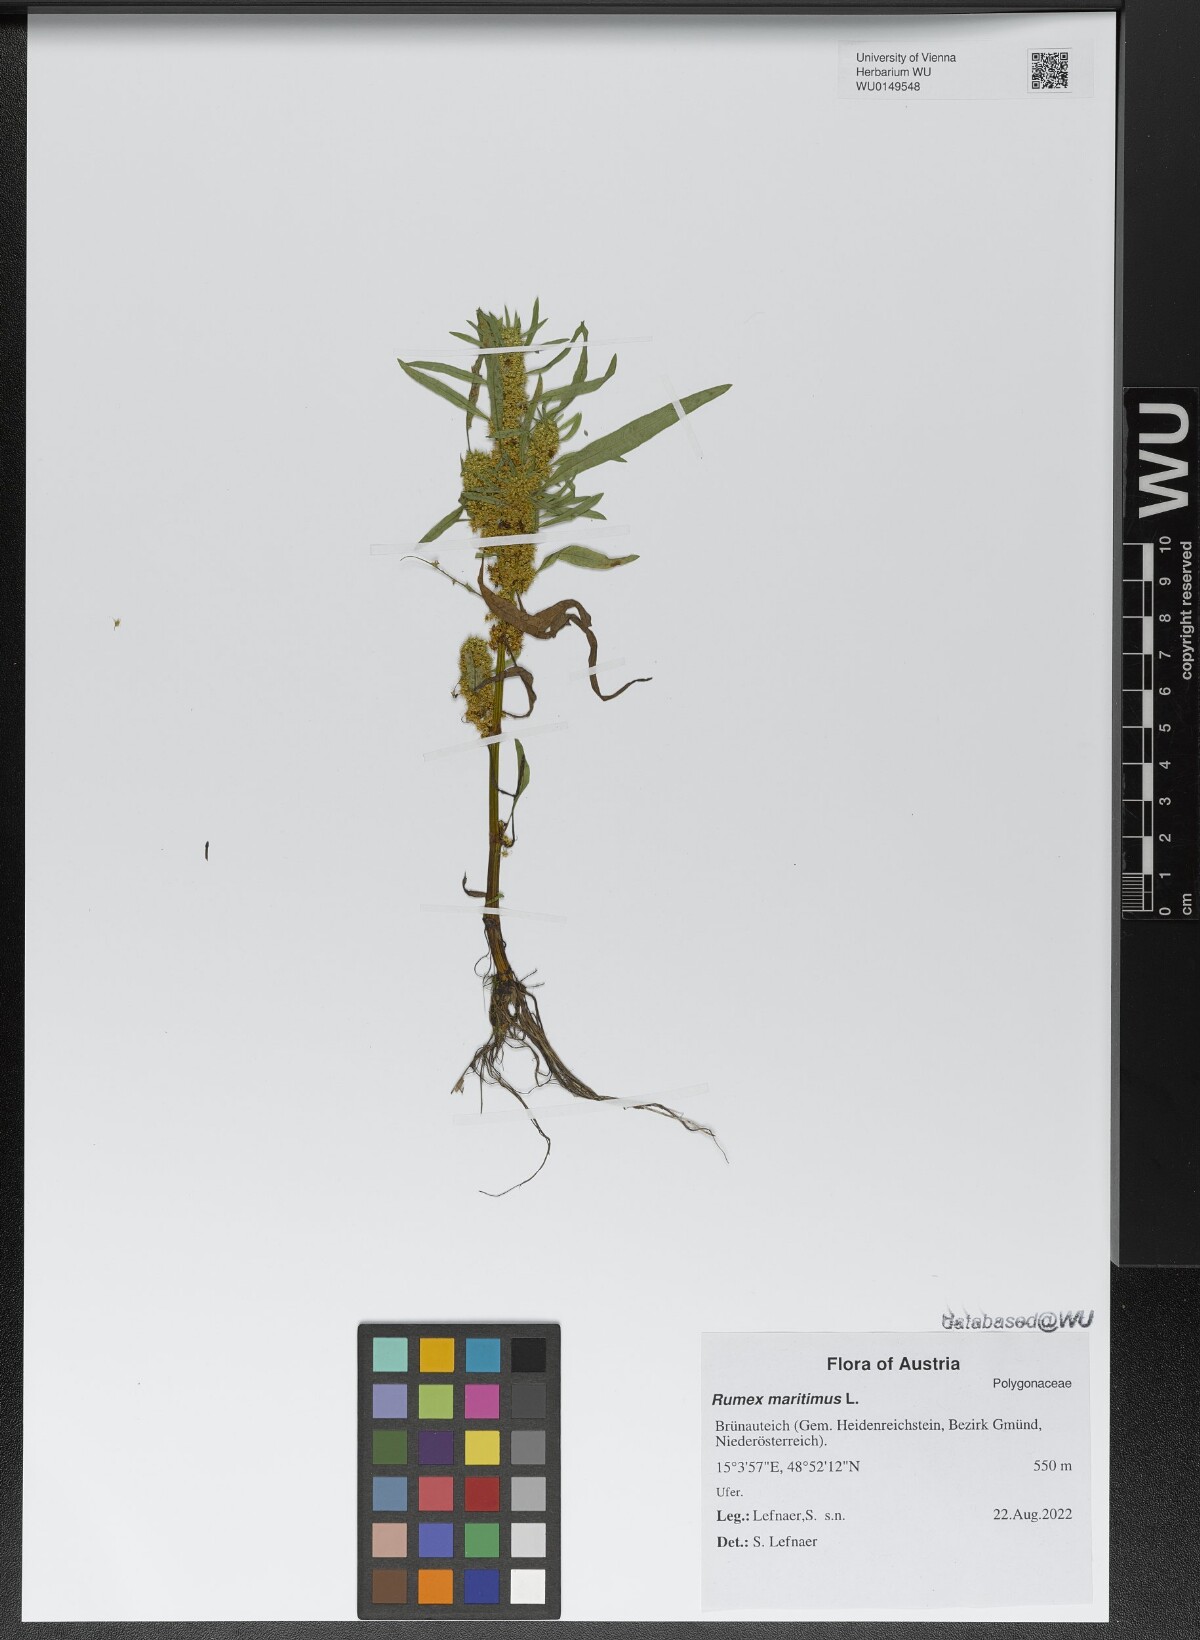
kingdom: Plantae
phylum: Tracheophyta
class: Magnoliopsida
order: Caryophyllales
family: Polygonaceae
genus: Rumex
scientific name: Rumex maritimus
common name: Golden dock
